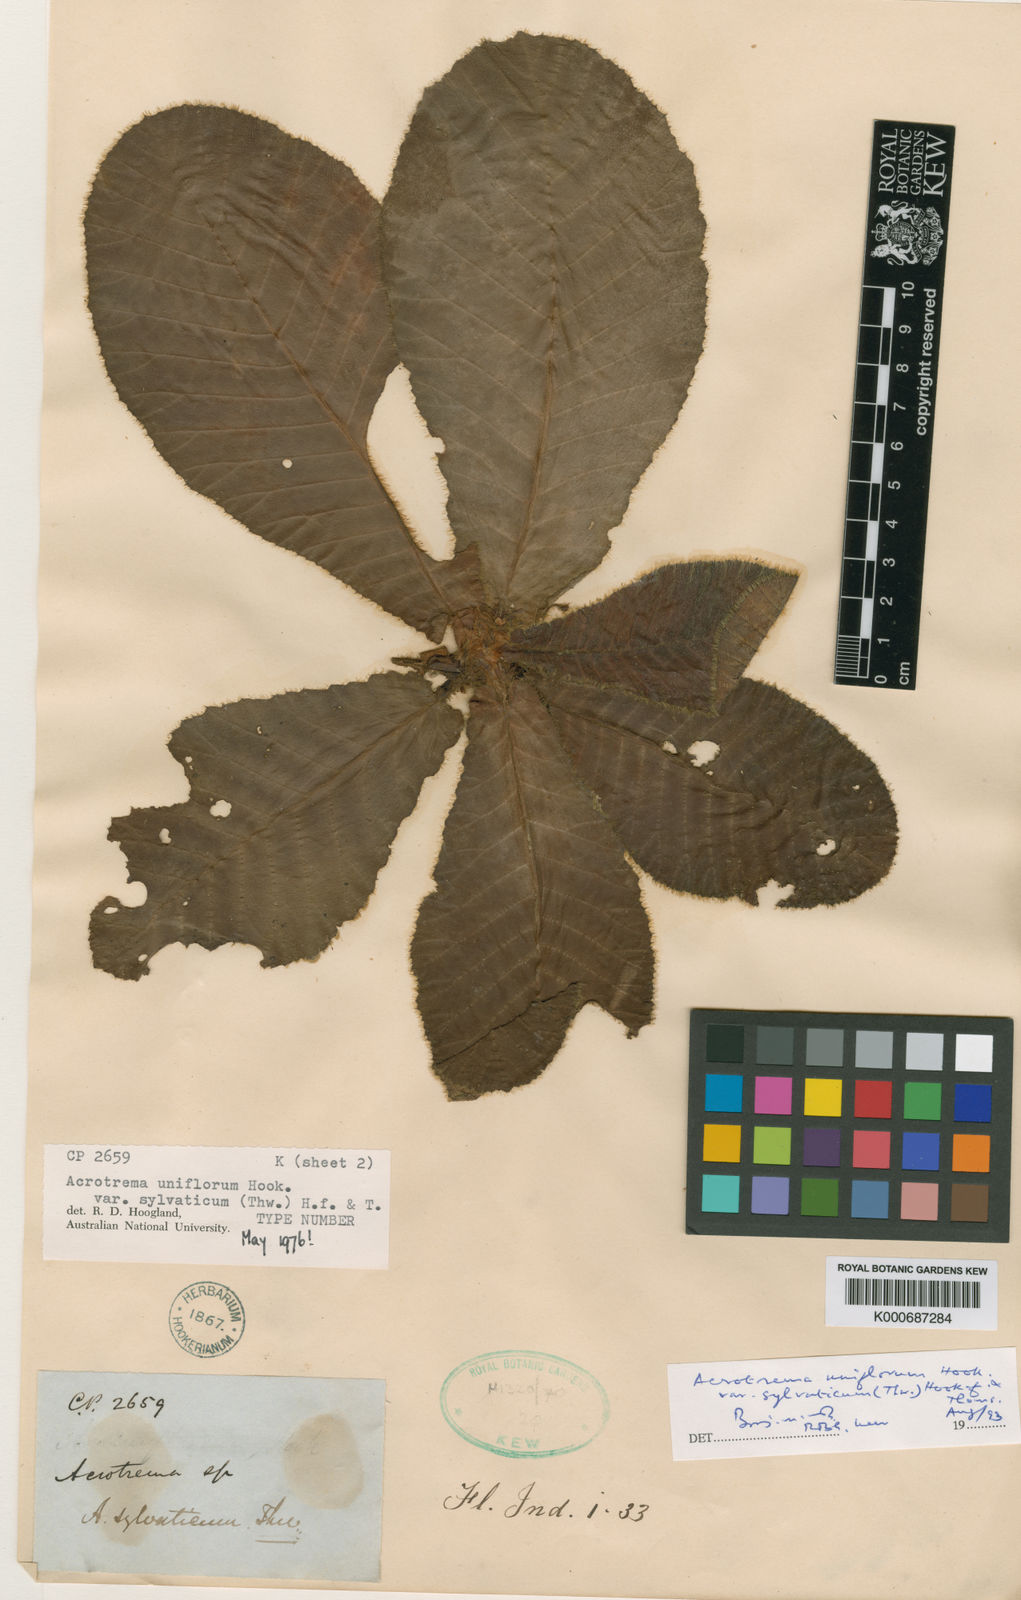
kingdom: Plantae
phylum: Tracheophyta
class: Magnoliopsida
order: Dilleniales
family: Dilleniaceae
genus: Acrotrema
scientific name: Acrotrema uniflorum
